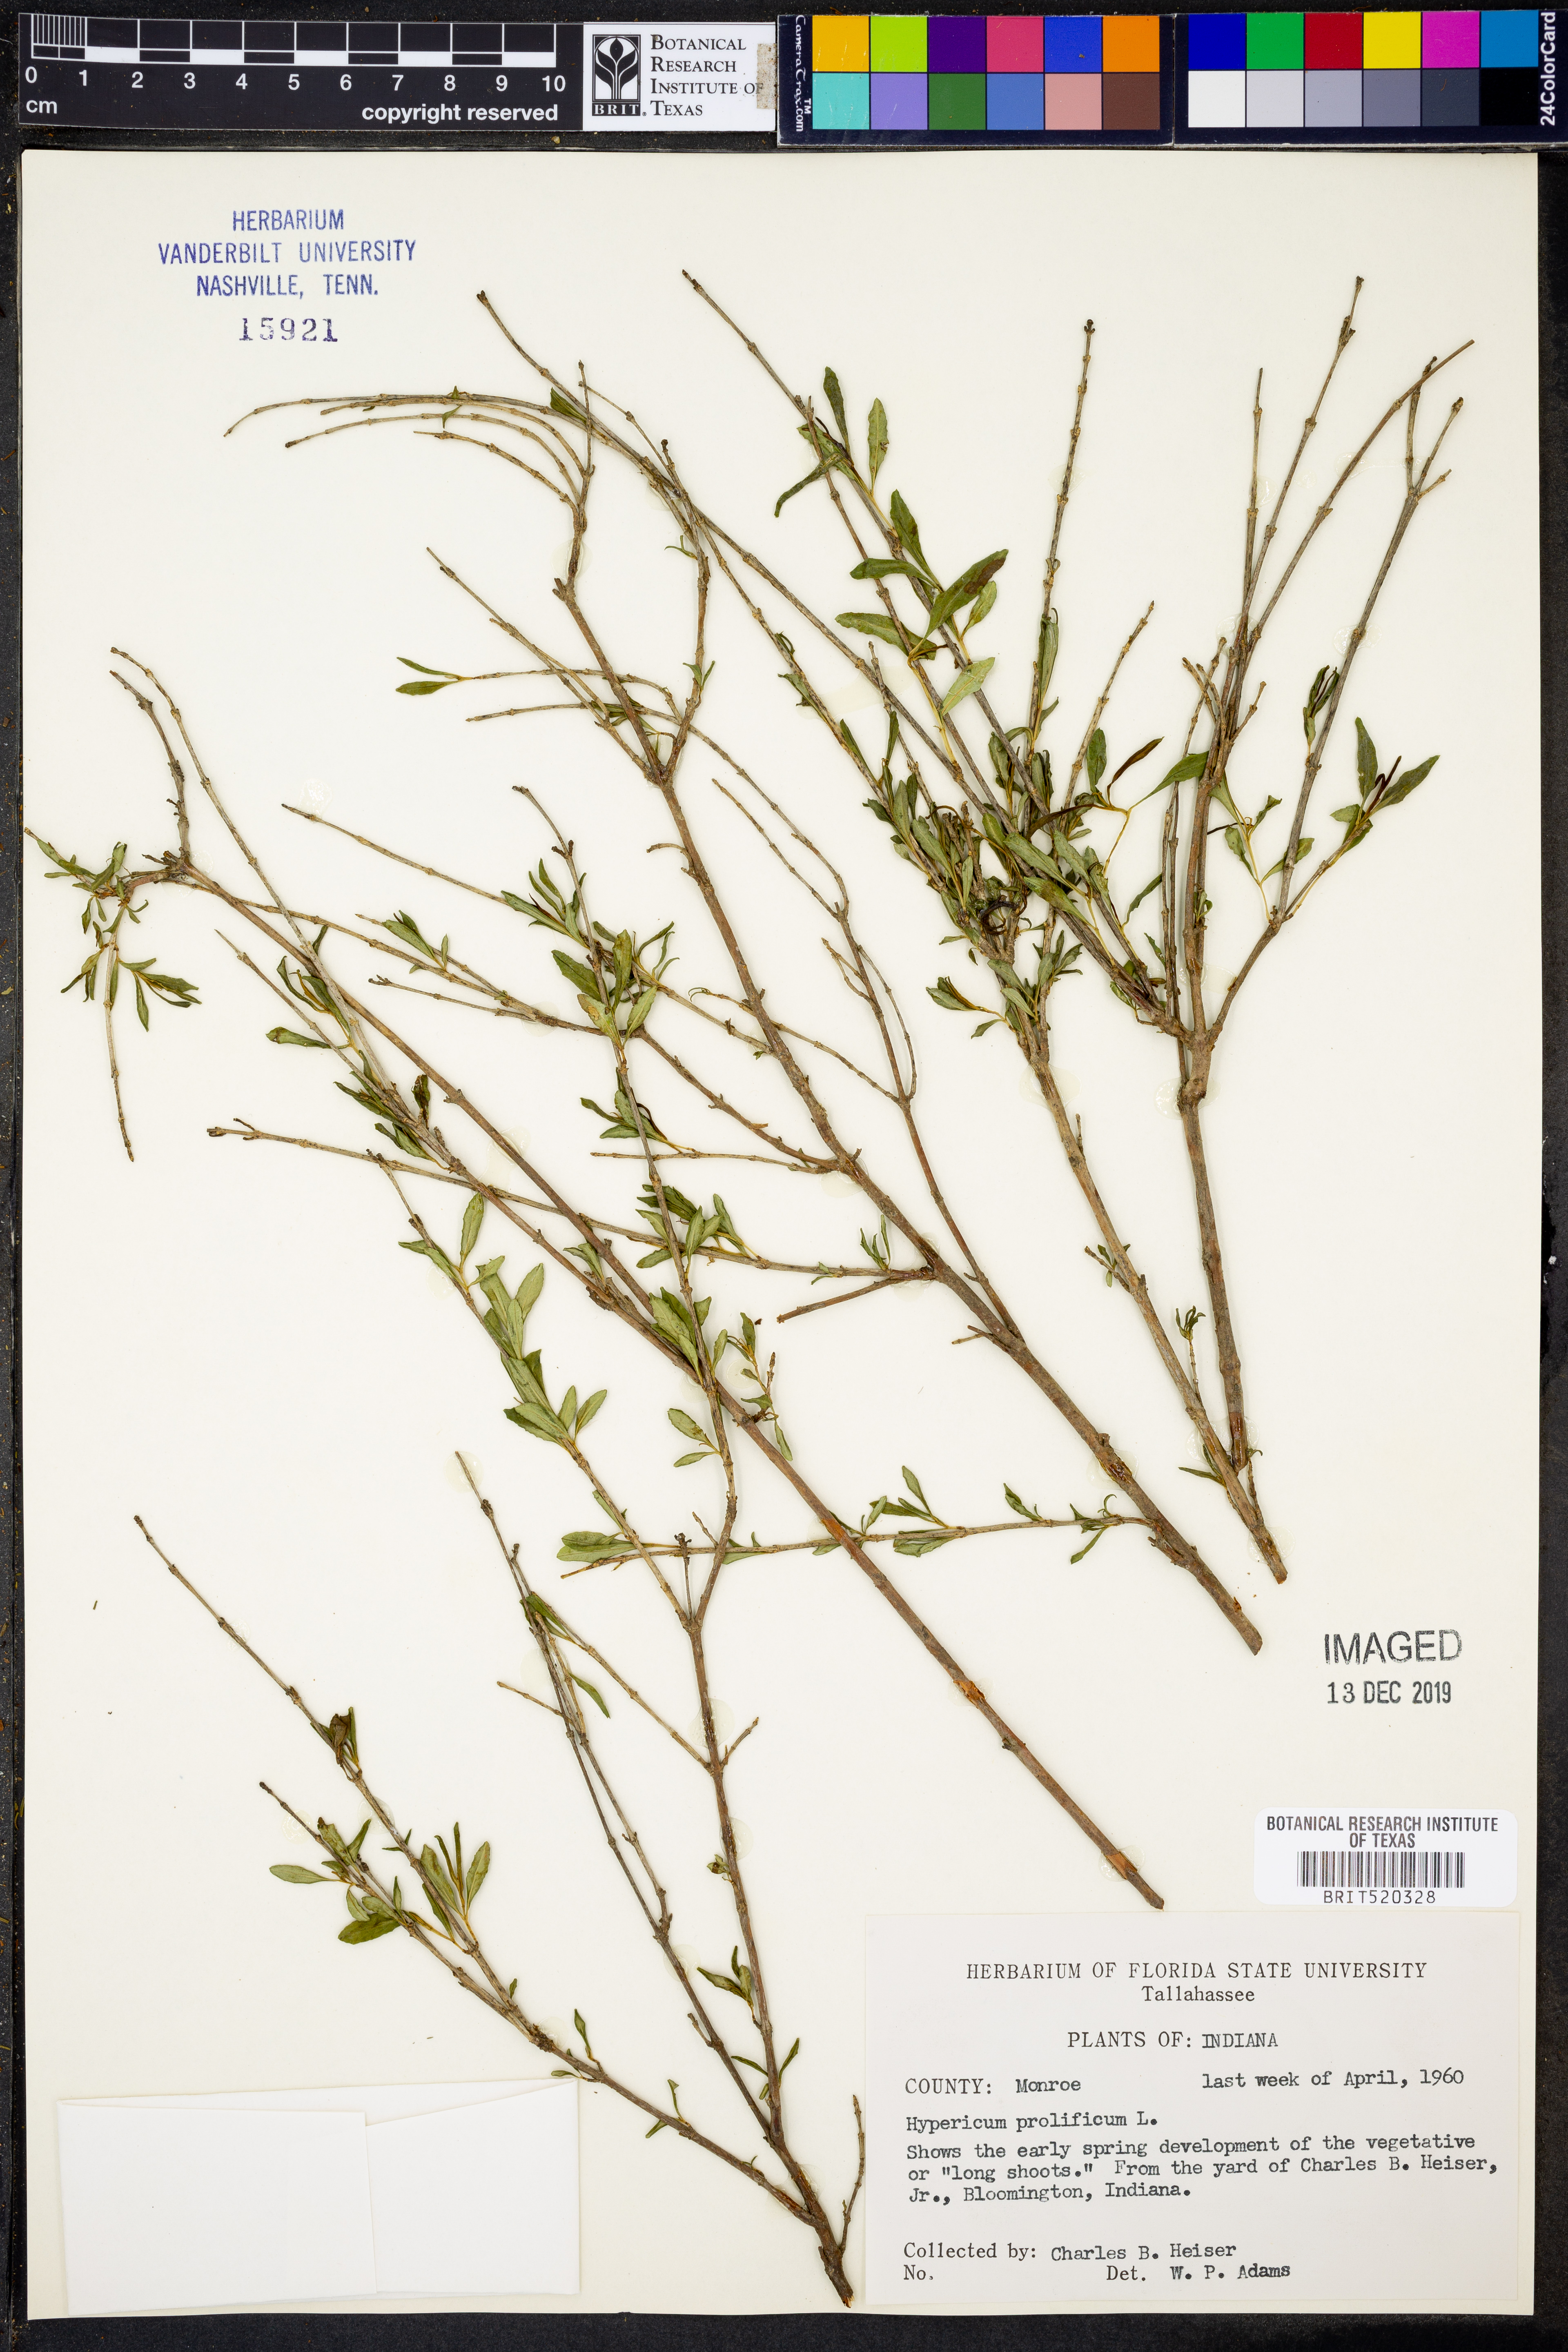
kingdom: Plantae
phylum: Tracheophyta
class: Magnoliopsida
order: Malpighiales
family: Hypericaceae
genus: Hypericum
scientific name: Hypericum prolificum
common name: Shrubby st. john's-wort
